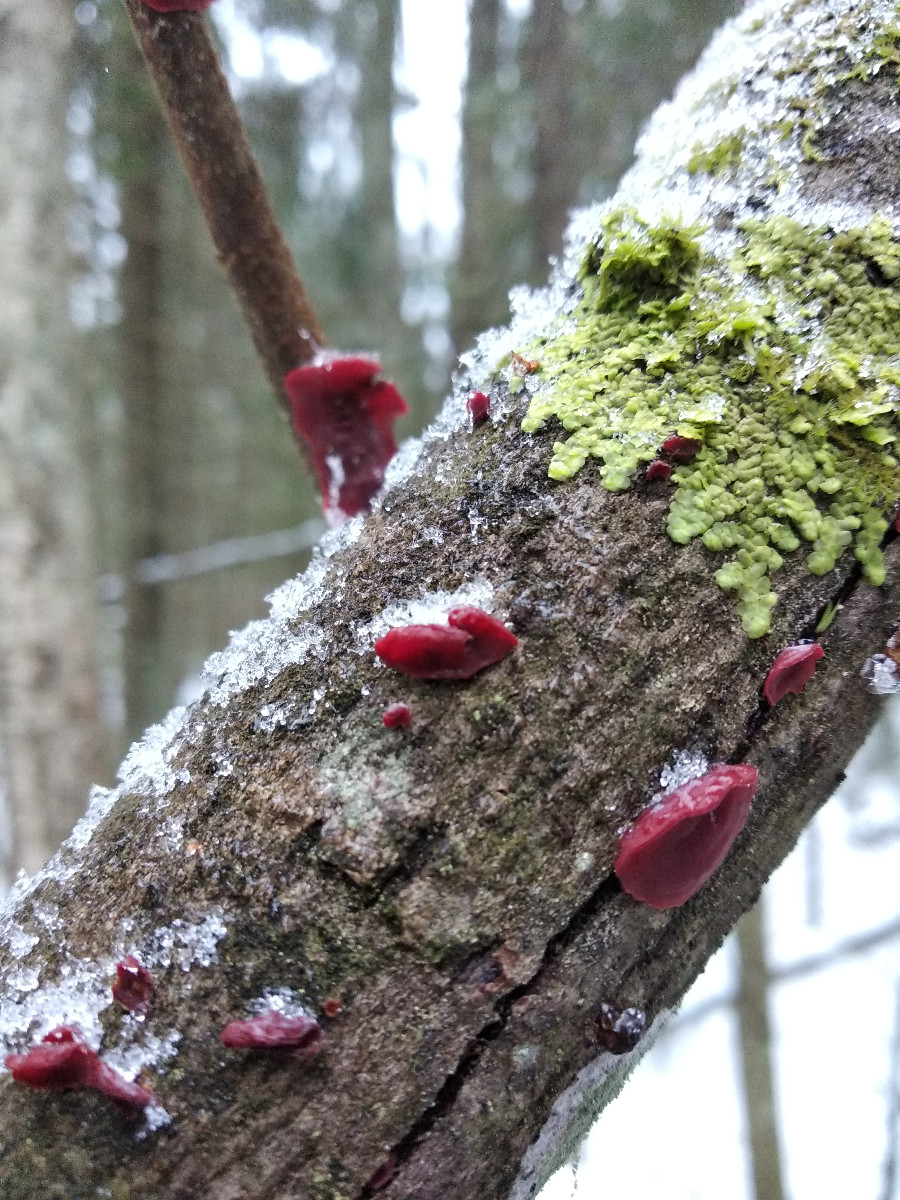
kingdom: Fungi
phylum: Basidiomycota
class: Agaricomycetes
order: Corticiales
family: Vuilleminiaceae
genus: Cytidia
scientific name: Cytidia salicina
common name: Scarlet splash
